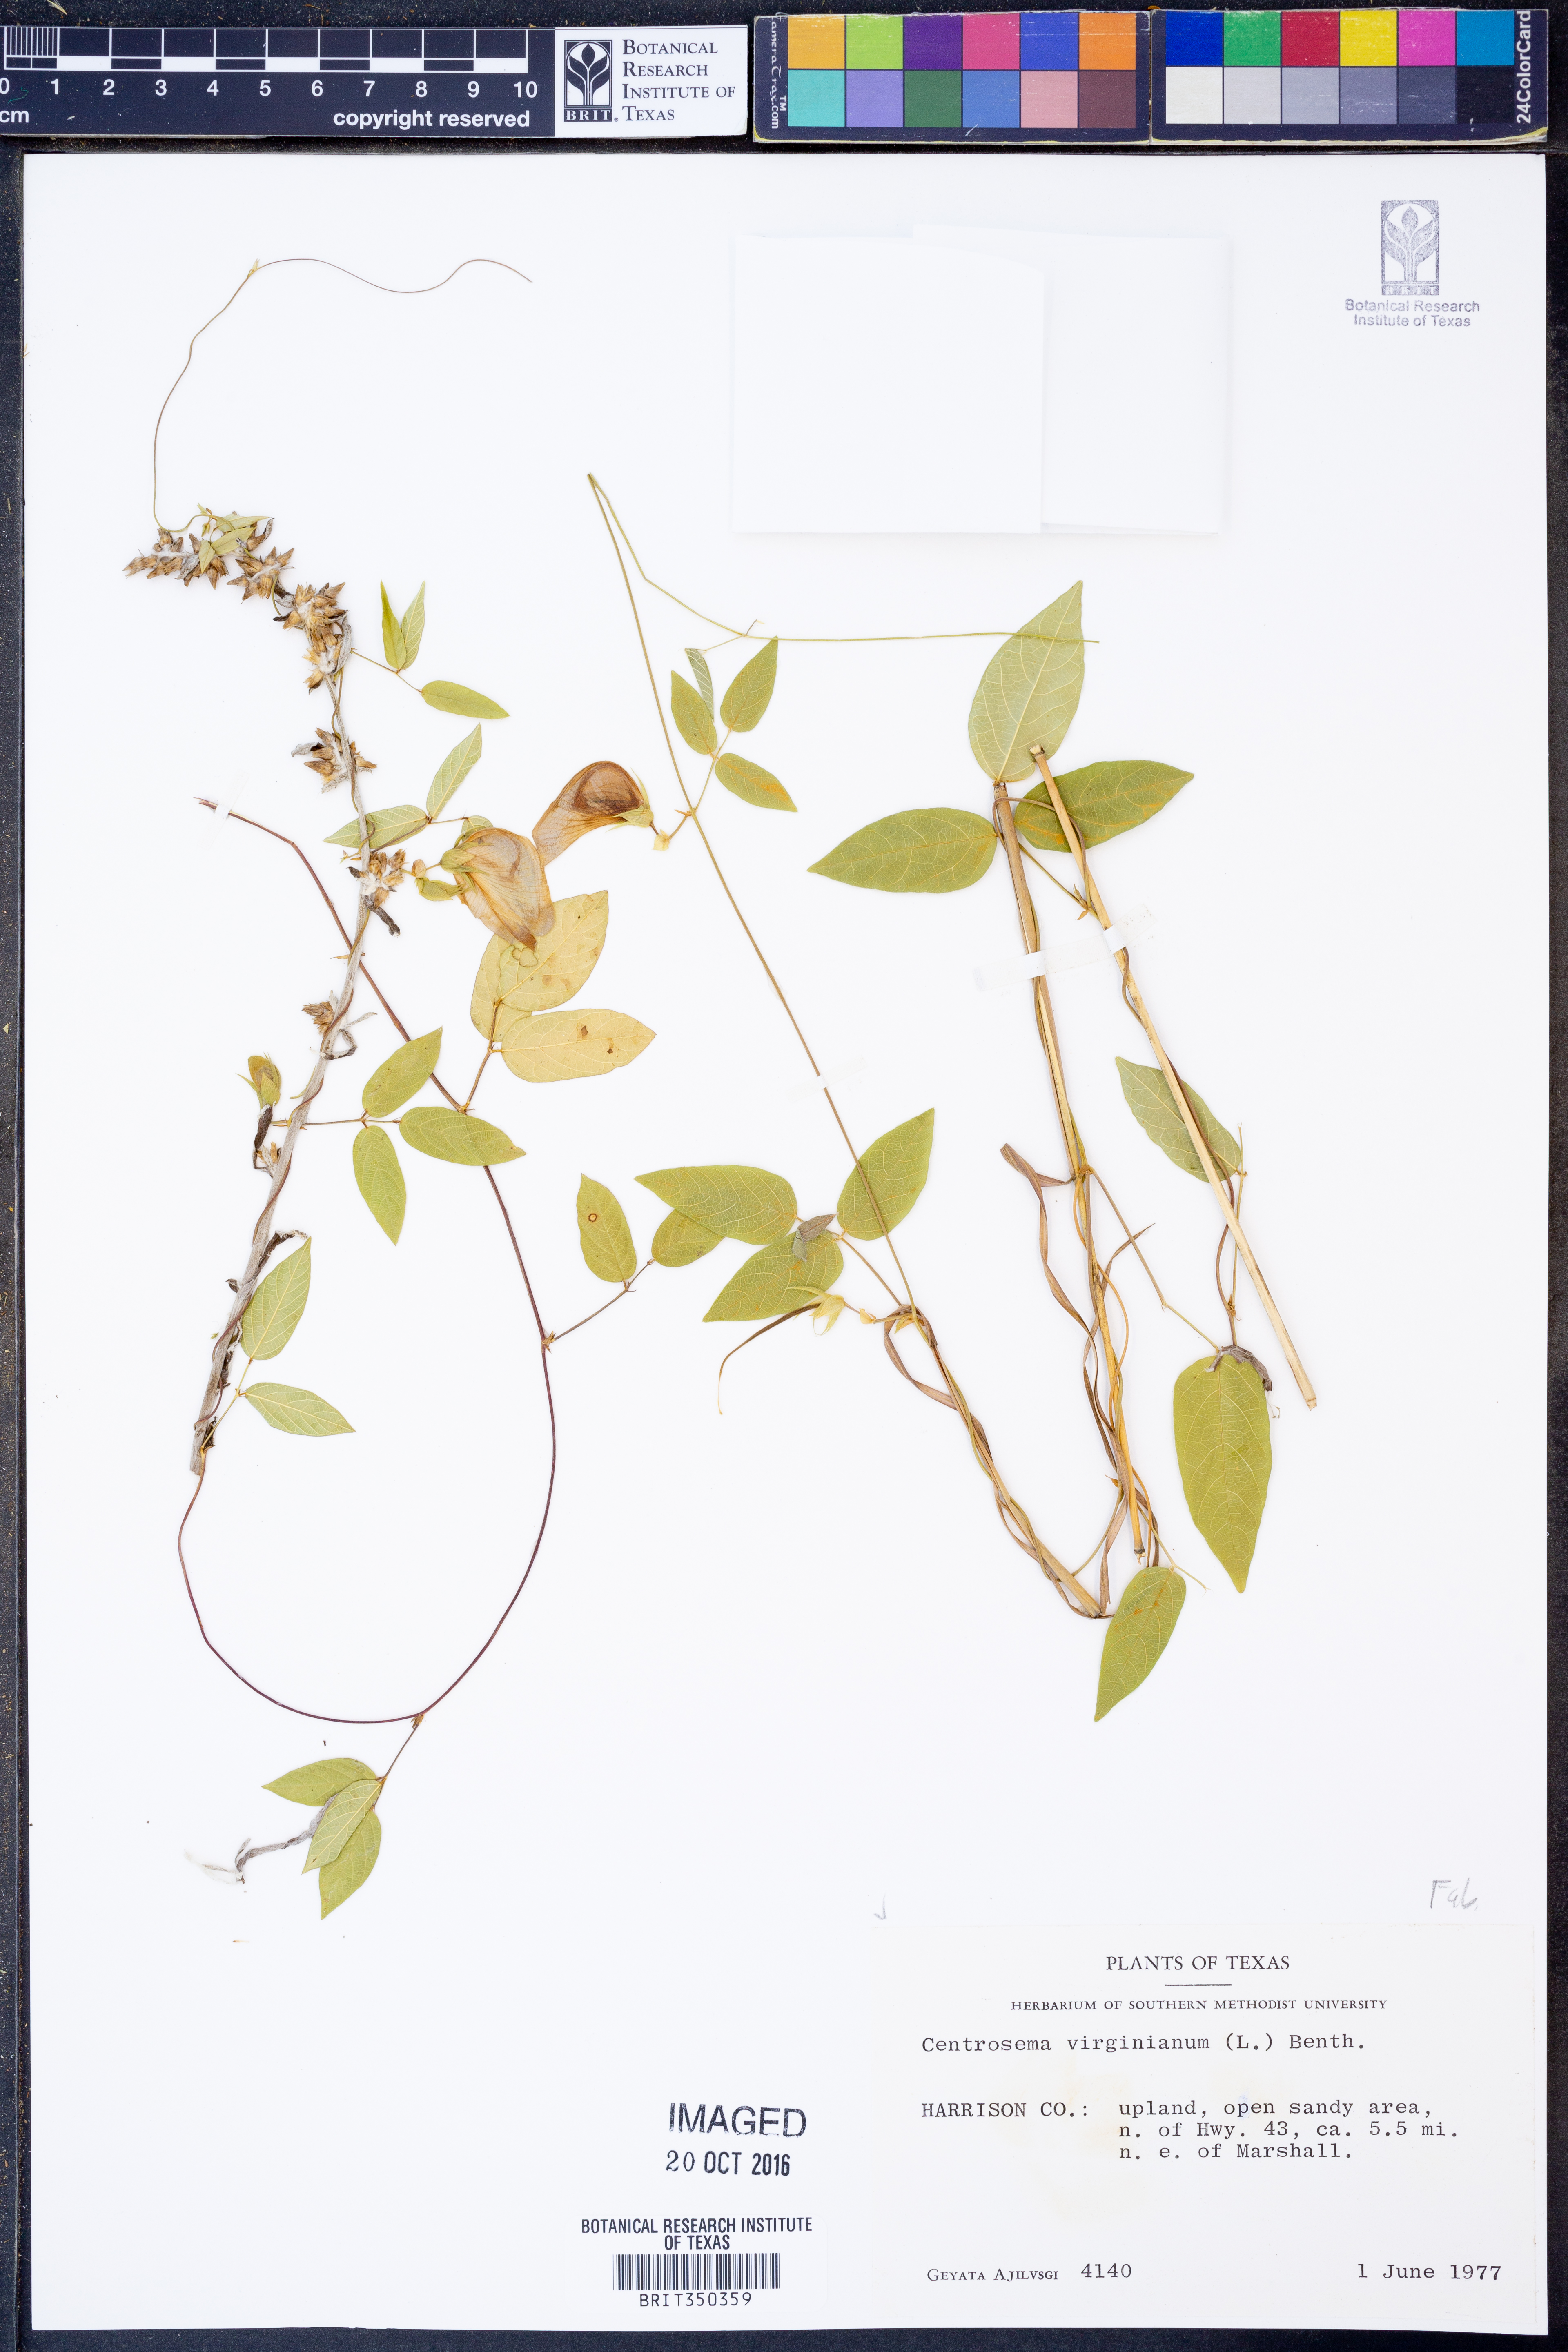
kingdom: Plantae
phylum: Tracheophyta
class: Magnoliopsida
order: Fabales
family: Fabaceae
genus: Centrosema
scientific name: Centrosema virginianum
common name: Butterfly-pea
